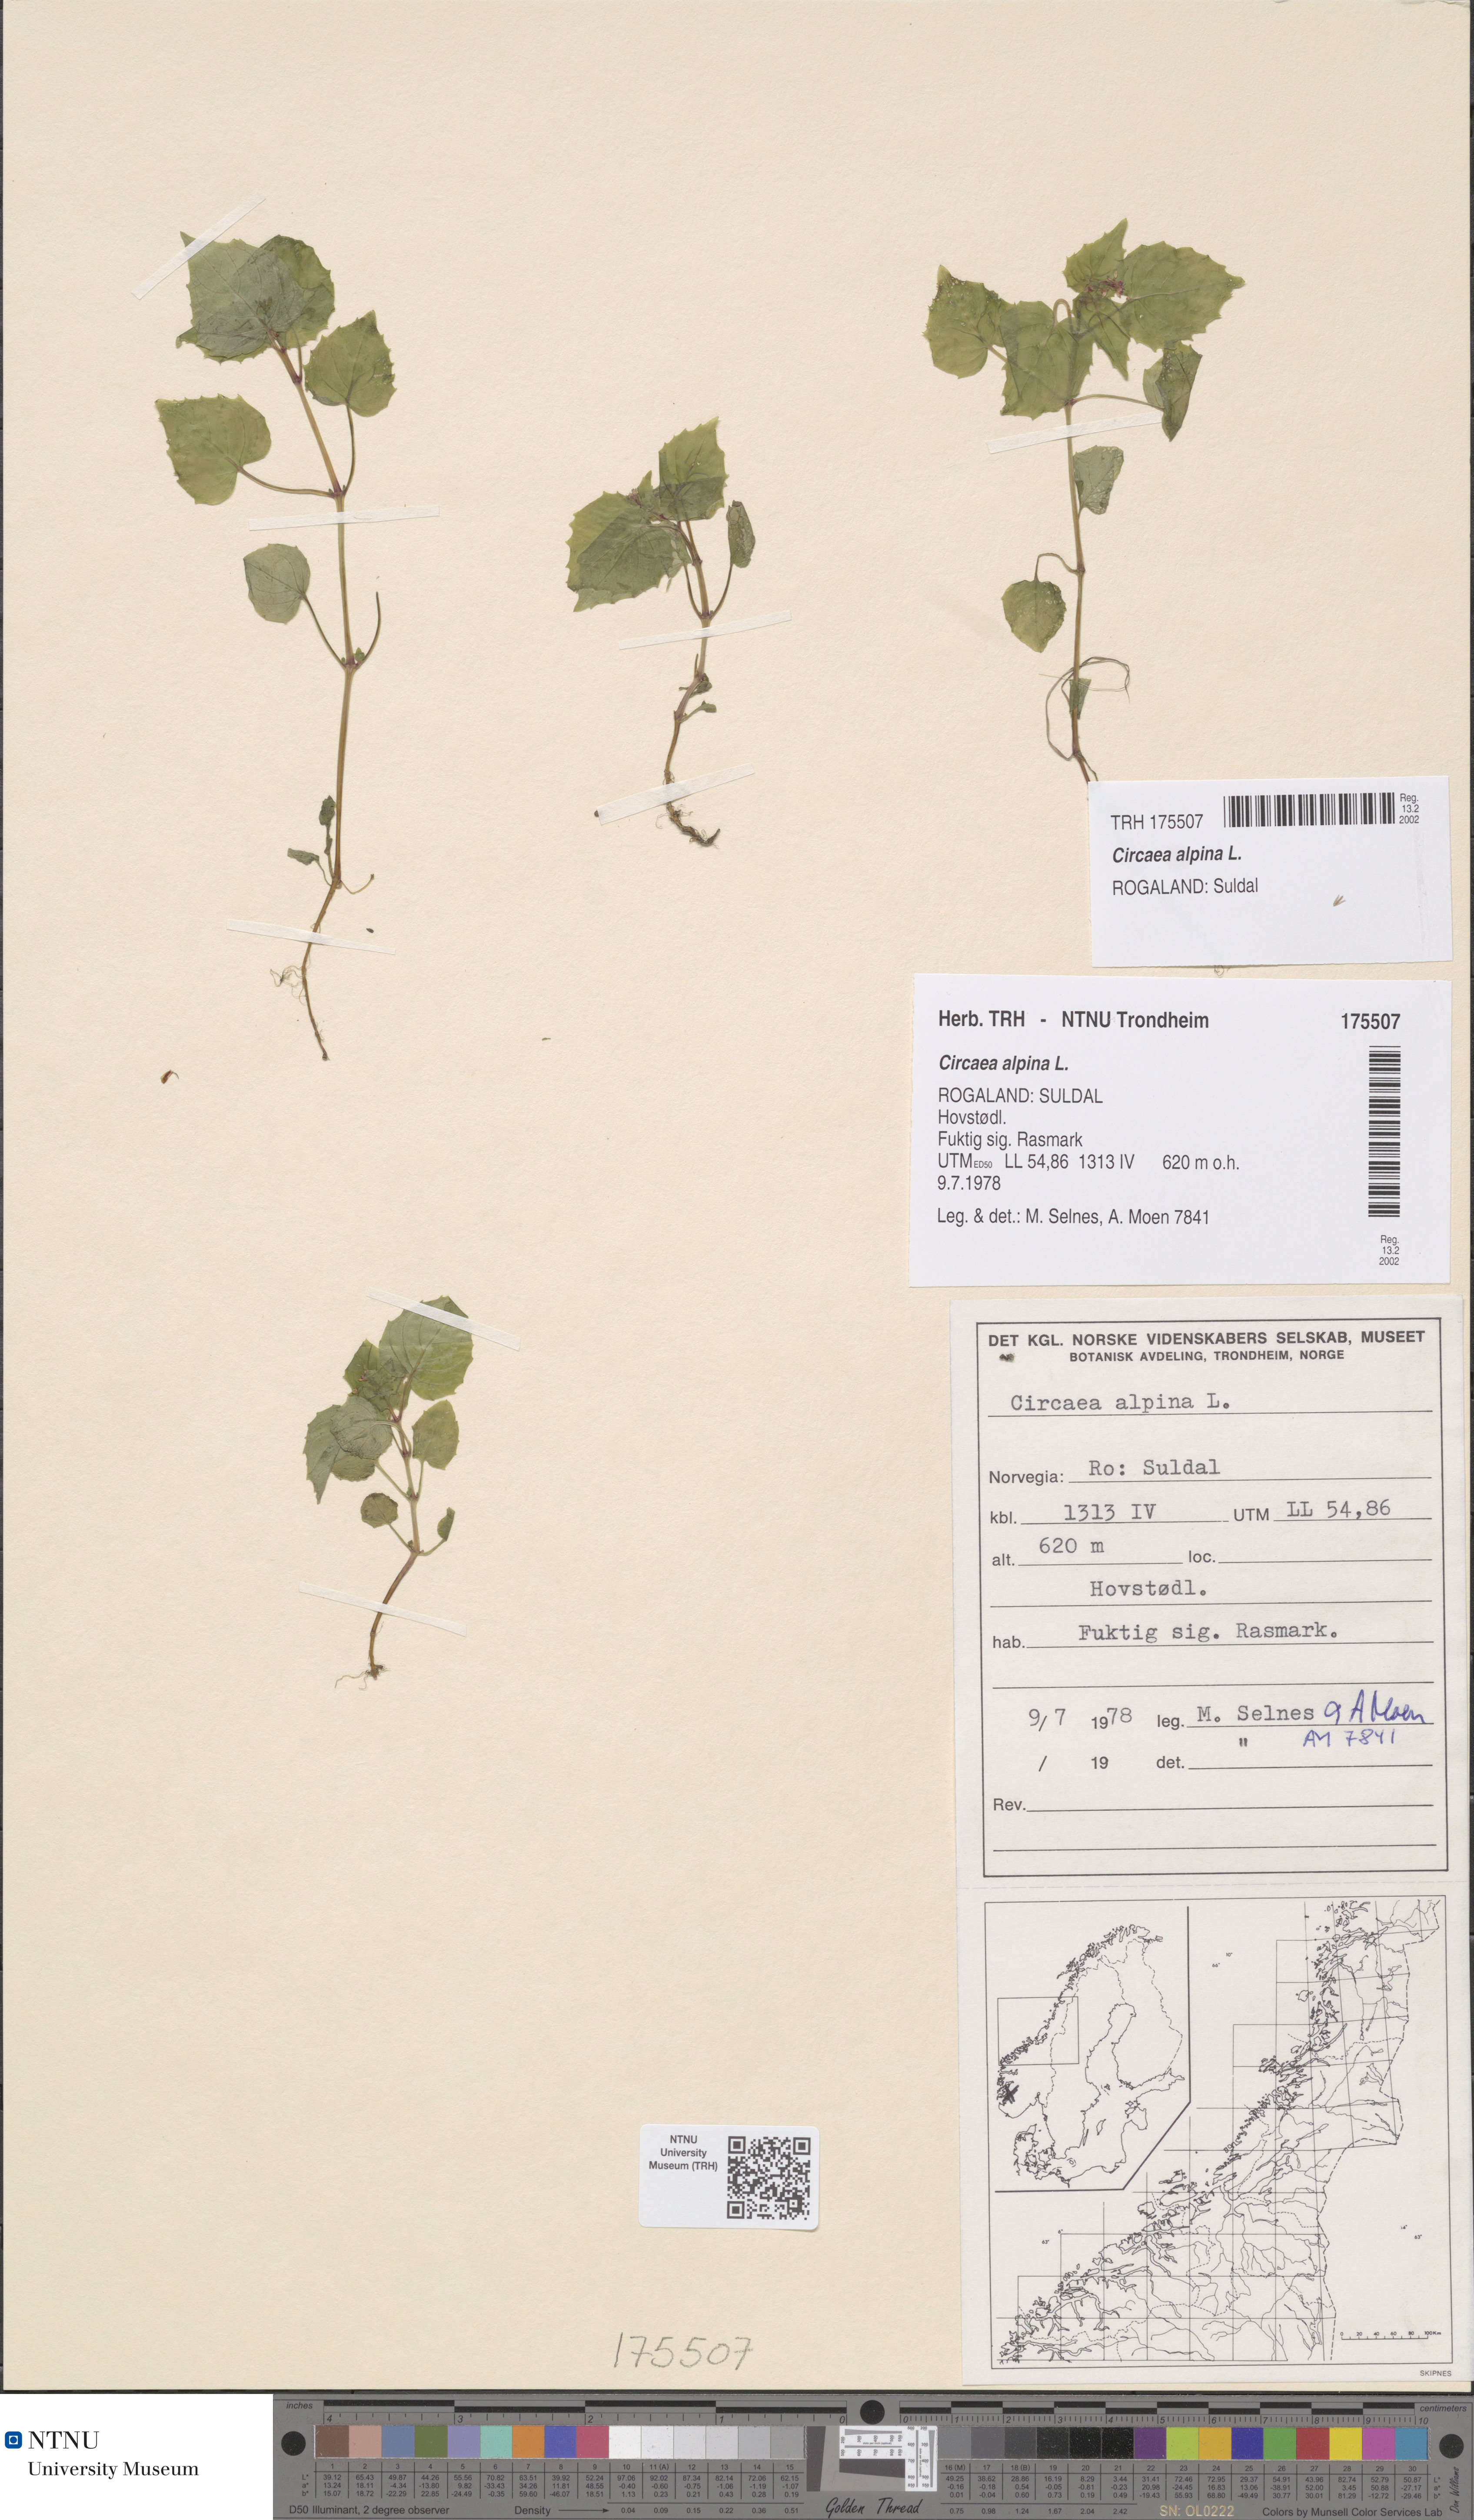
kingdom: Plantae
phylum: Tracheophyta
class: Magnoliopsida
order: Myrtales
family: Onagraceae
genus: Circaea
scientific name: Circaea alpina
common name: Alpine enchanter's-nightshade
